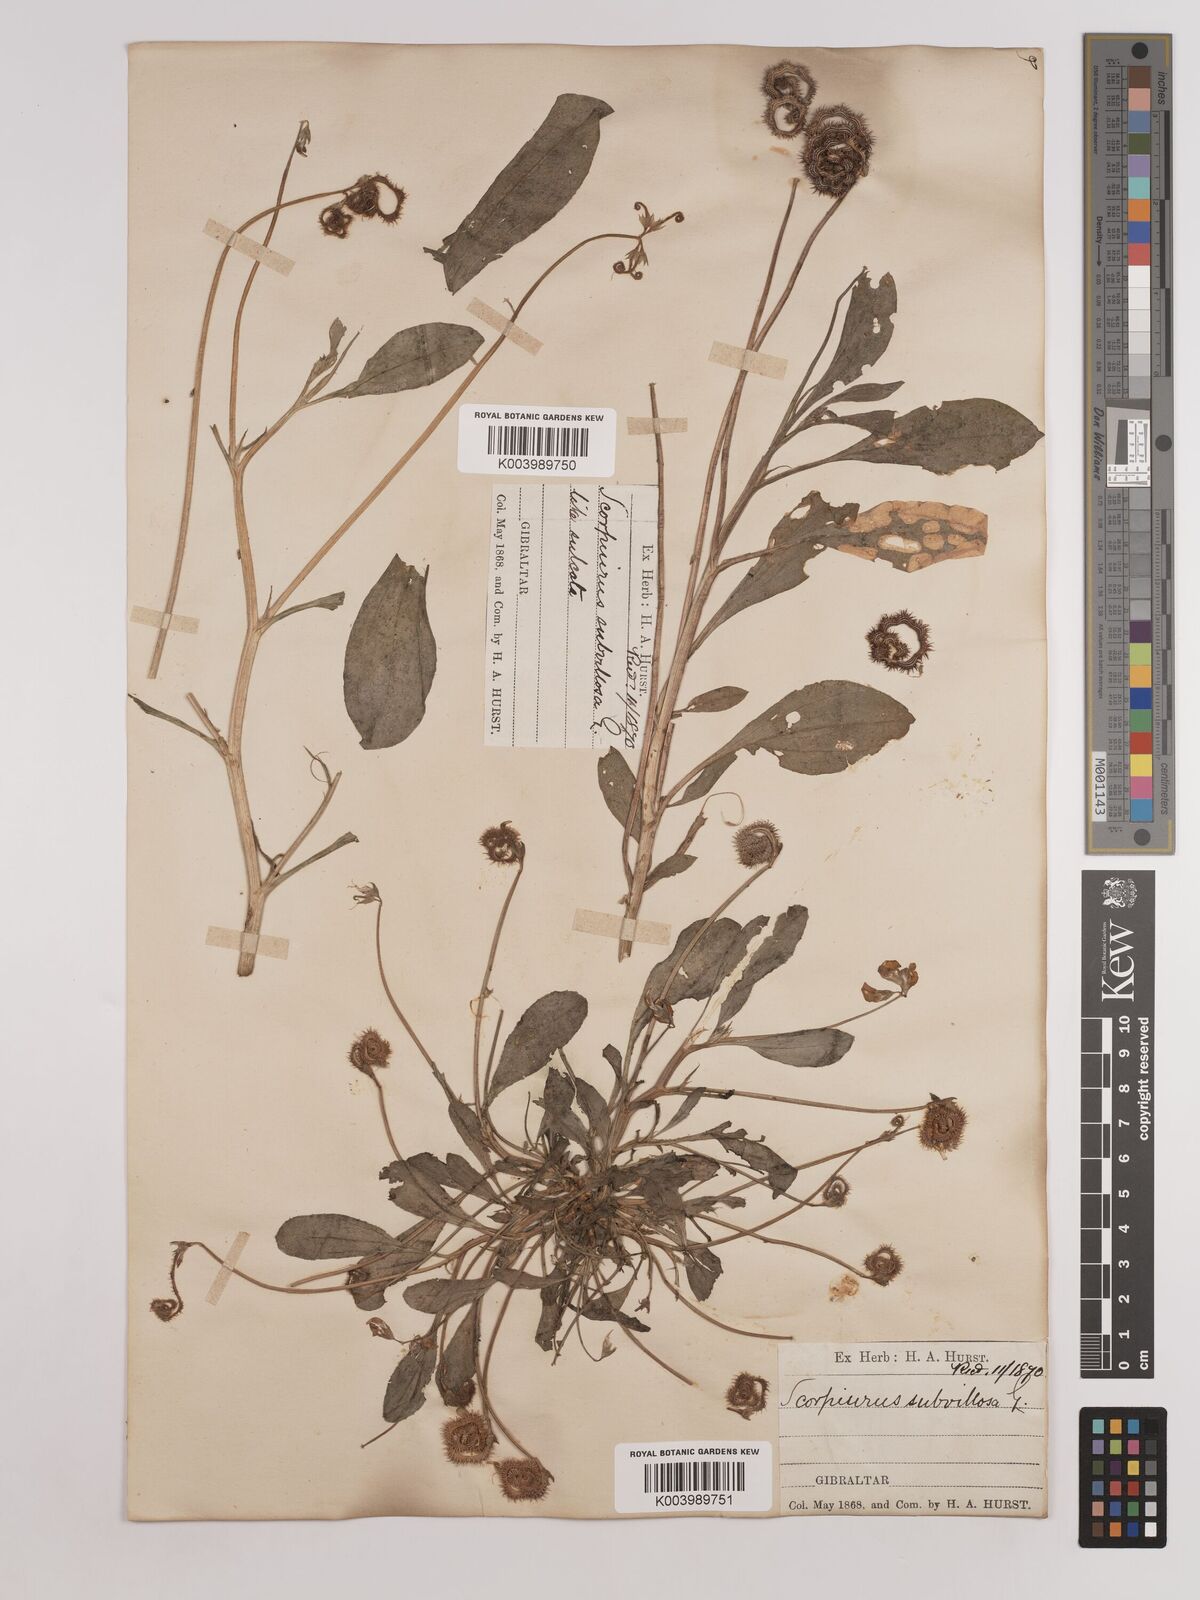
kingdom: Plantae
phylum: Tracheophyta
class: Magnoliopsida
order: Fabales
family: Fabaceae
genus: Scorpiurus
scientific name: Scorpiurus muricatus
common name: Caterpillar-plant
